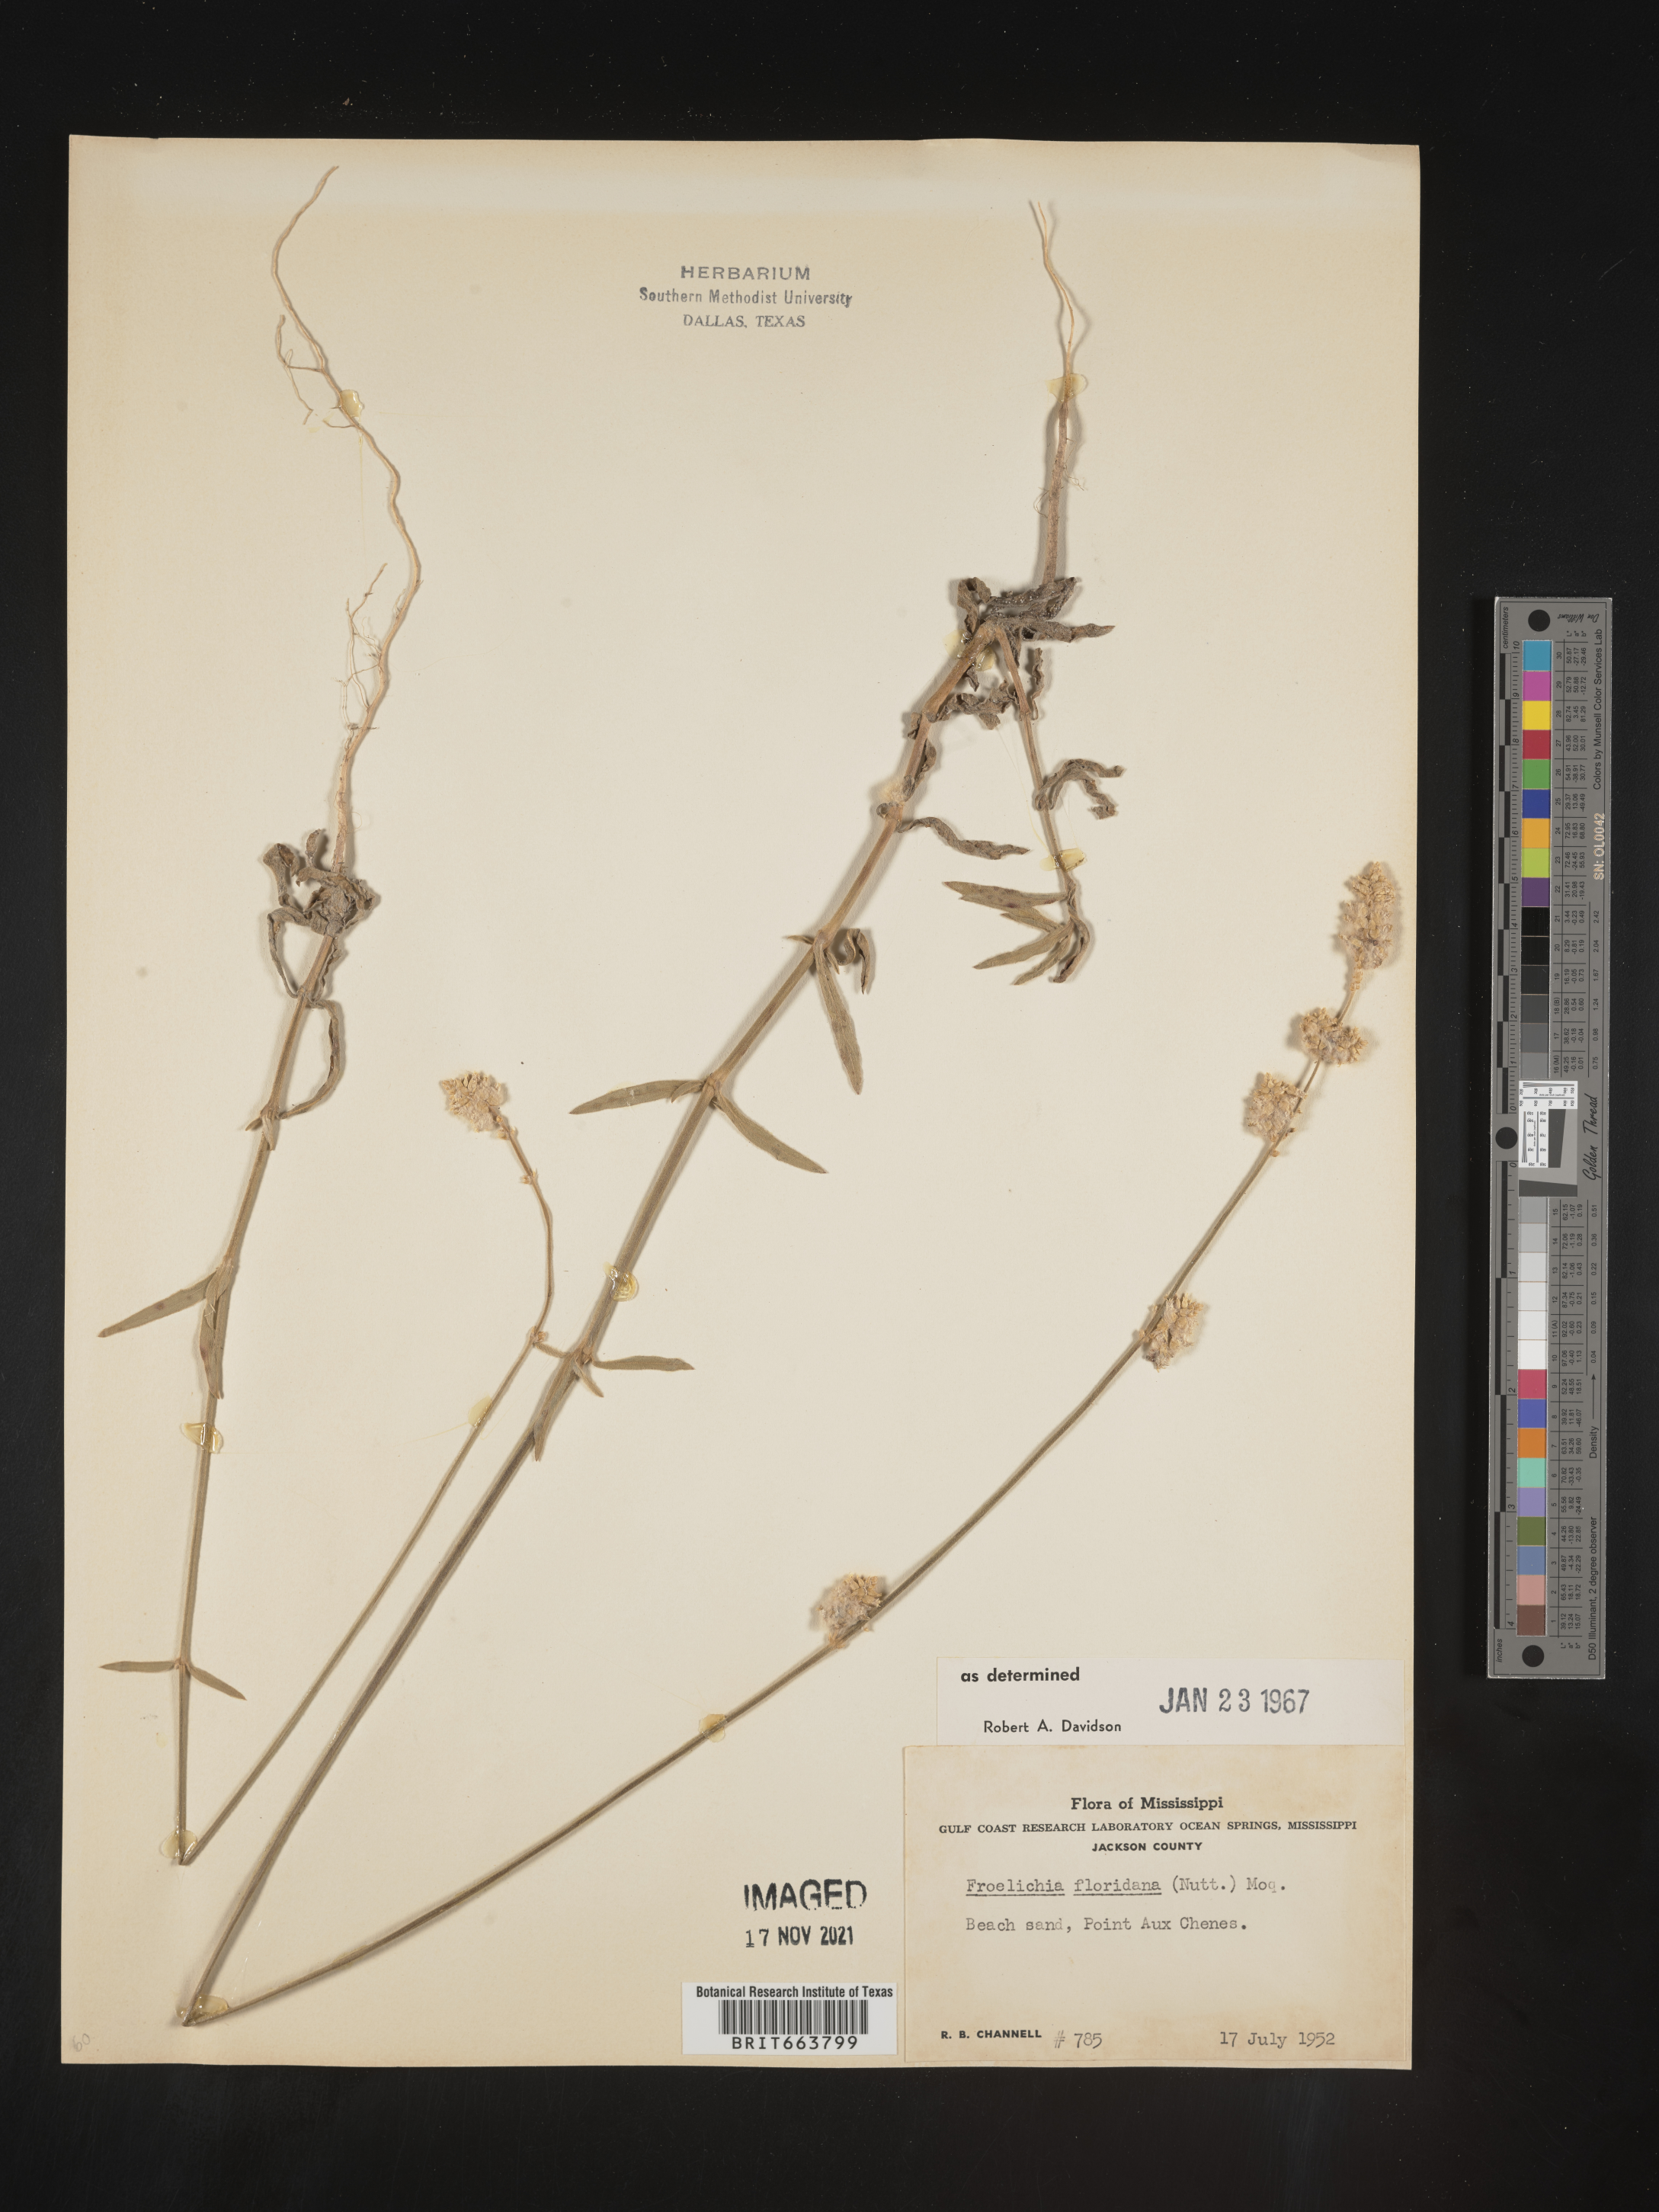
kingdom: Plantae
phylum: Tracheophyta
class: Magnoliopsida
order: Caryophyllales
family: Amaranthaceae
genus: Froelichia
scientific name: Froelichia floridana
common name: Florida snake-cotton
